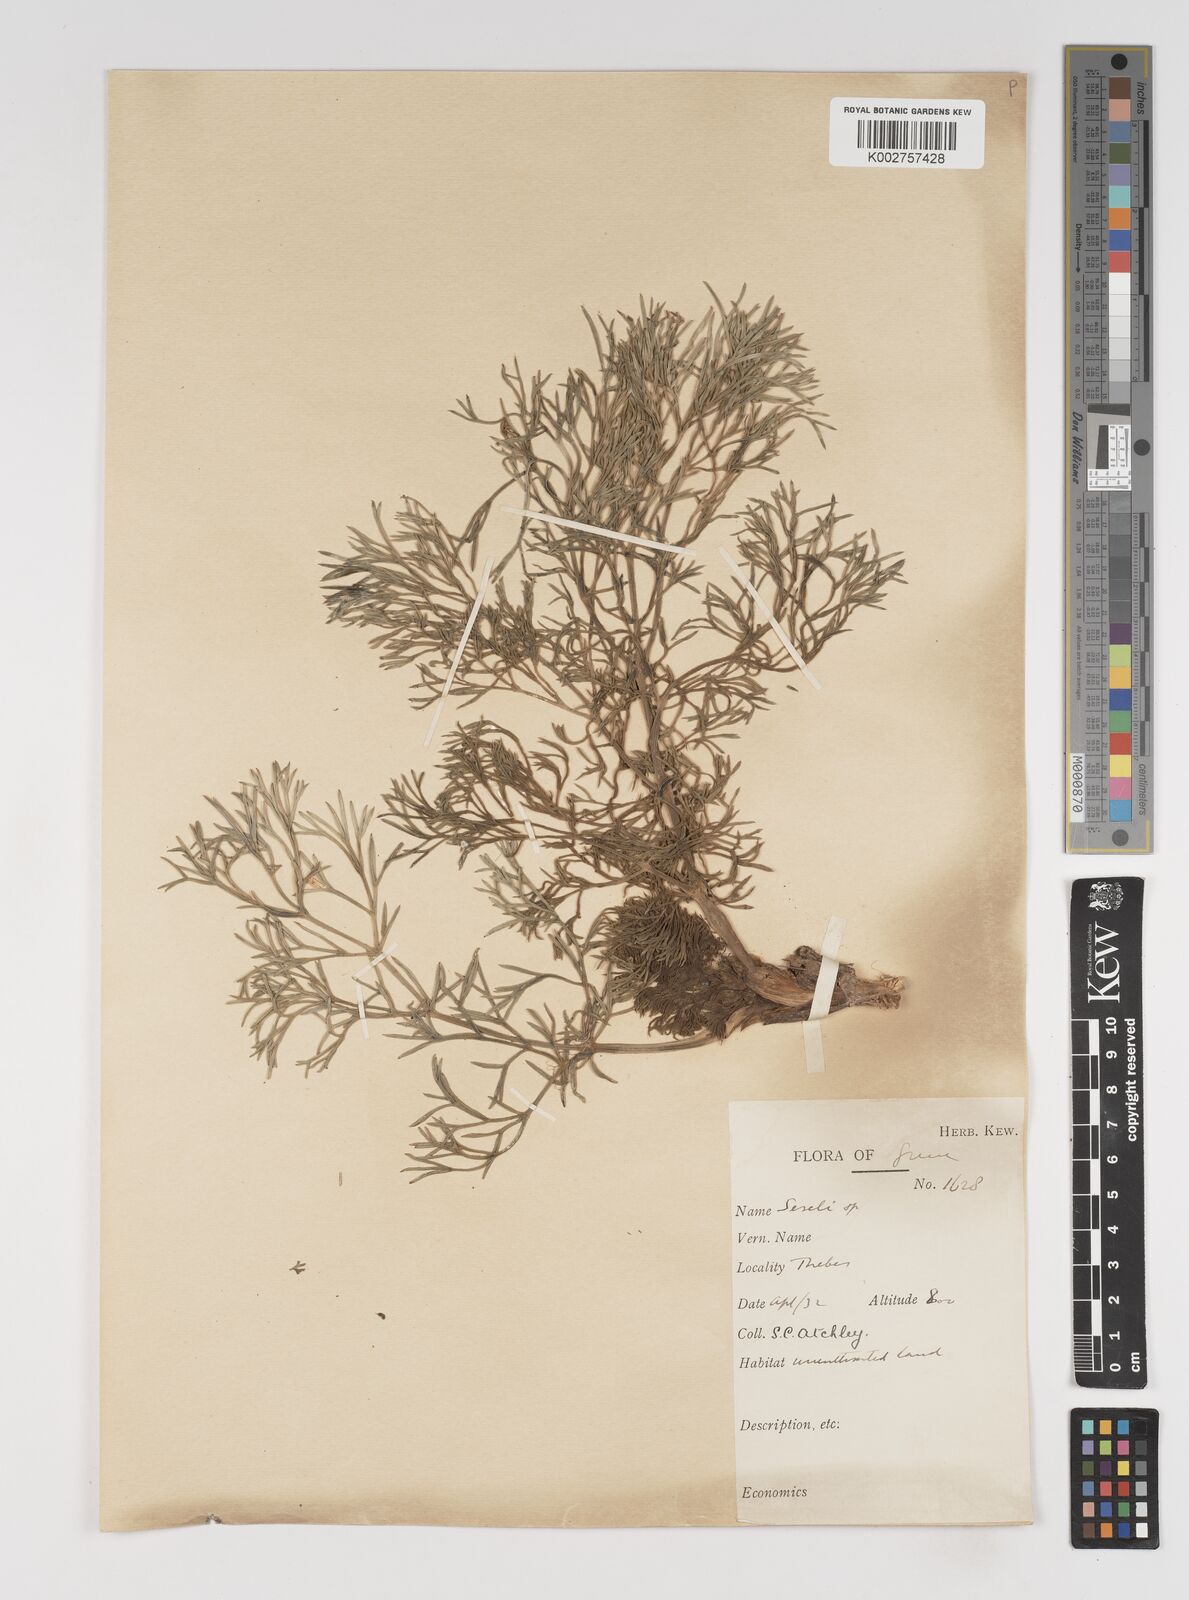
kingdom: Plantae
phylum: Tracheophyta
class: Magnoliopsida
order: Apiales
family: Apiaceae
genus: Seseli
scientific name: Seseli
